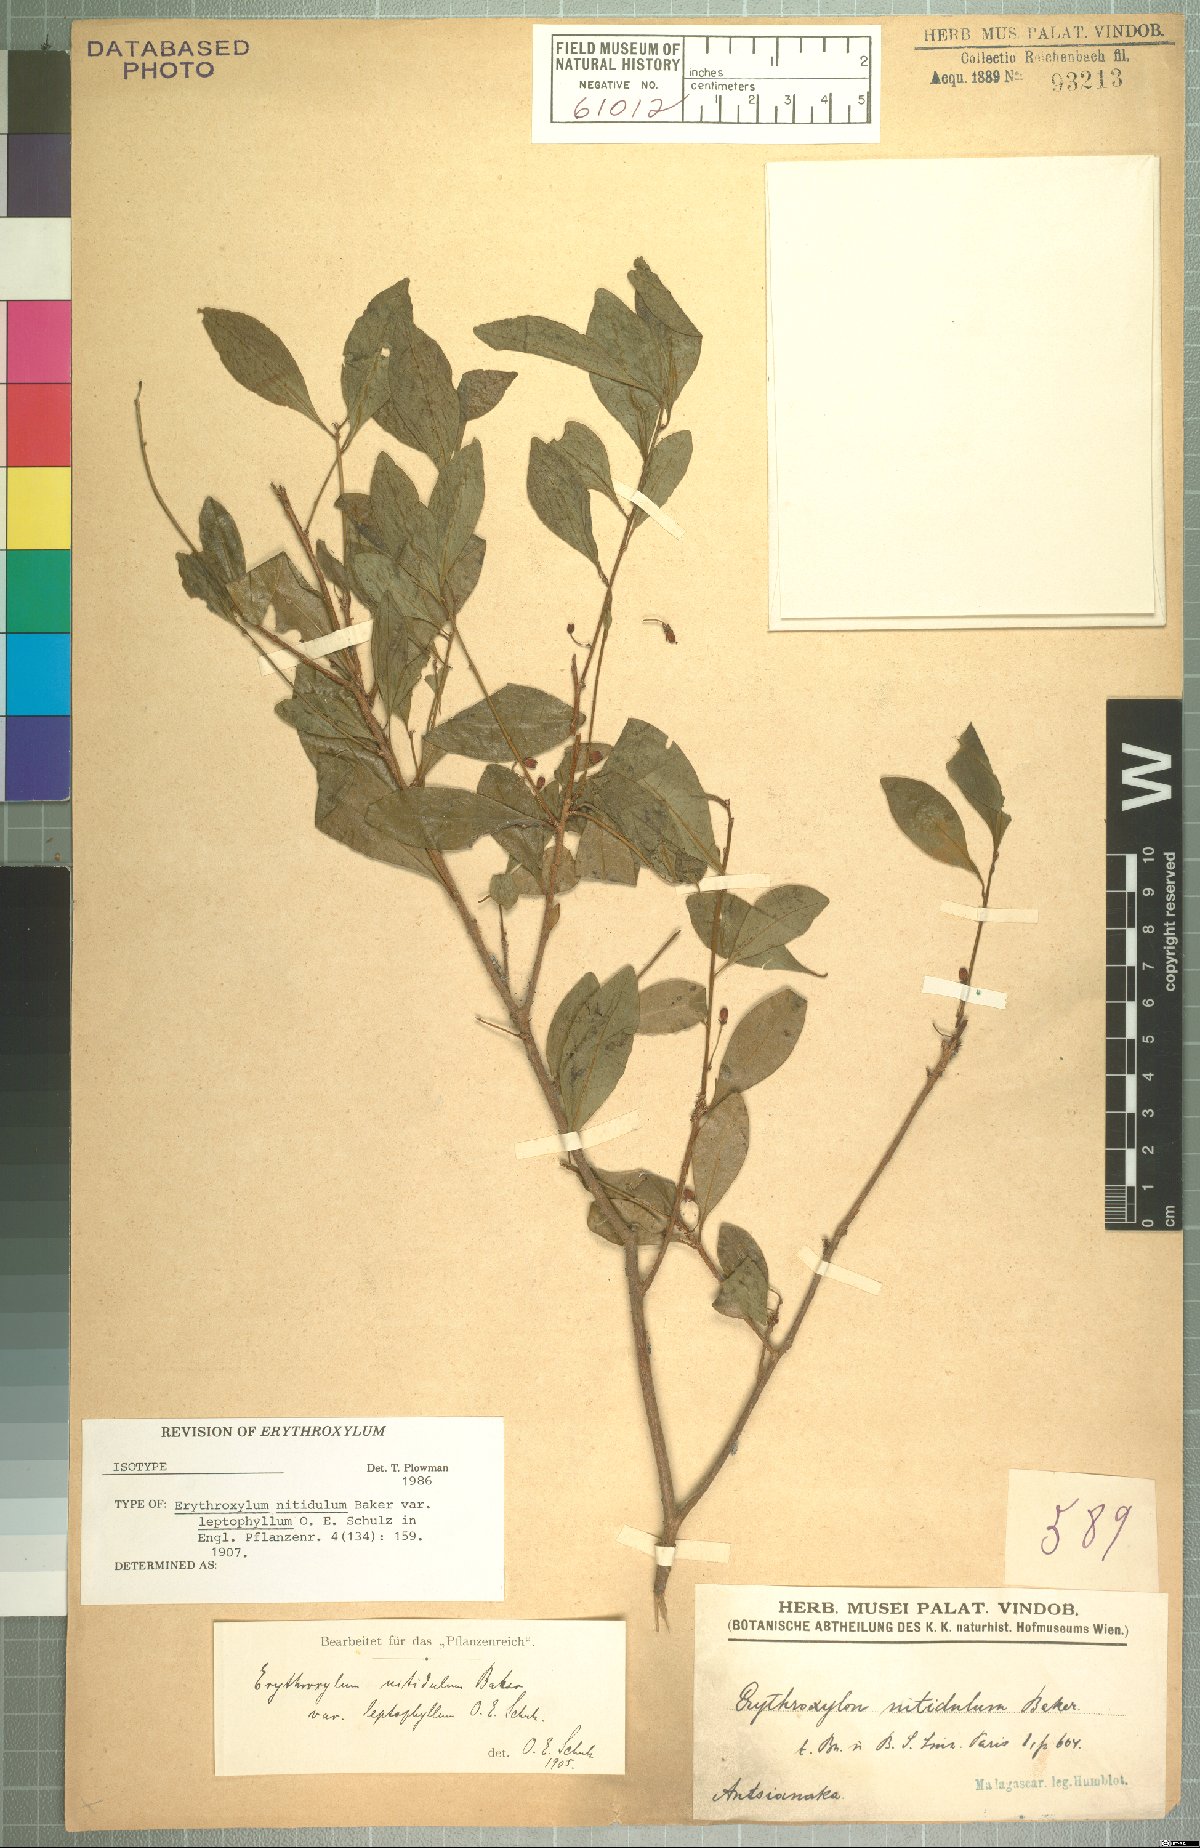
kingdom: Plantae
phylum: Tracheophyta
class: Magnoliopsida
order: Malpighiales
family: Erythroxylaceae
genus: Erythroxylum
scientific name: Erythroxylum nitidulum
